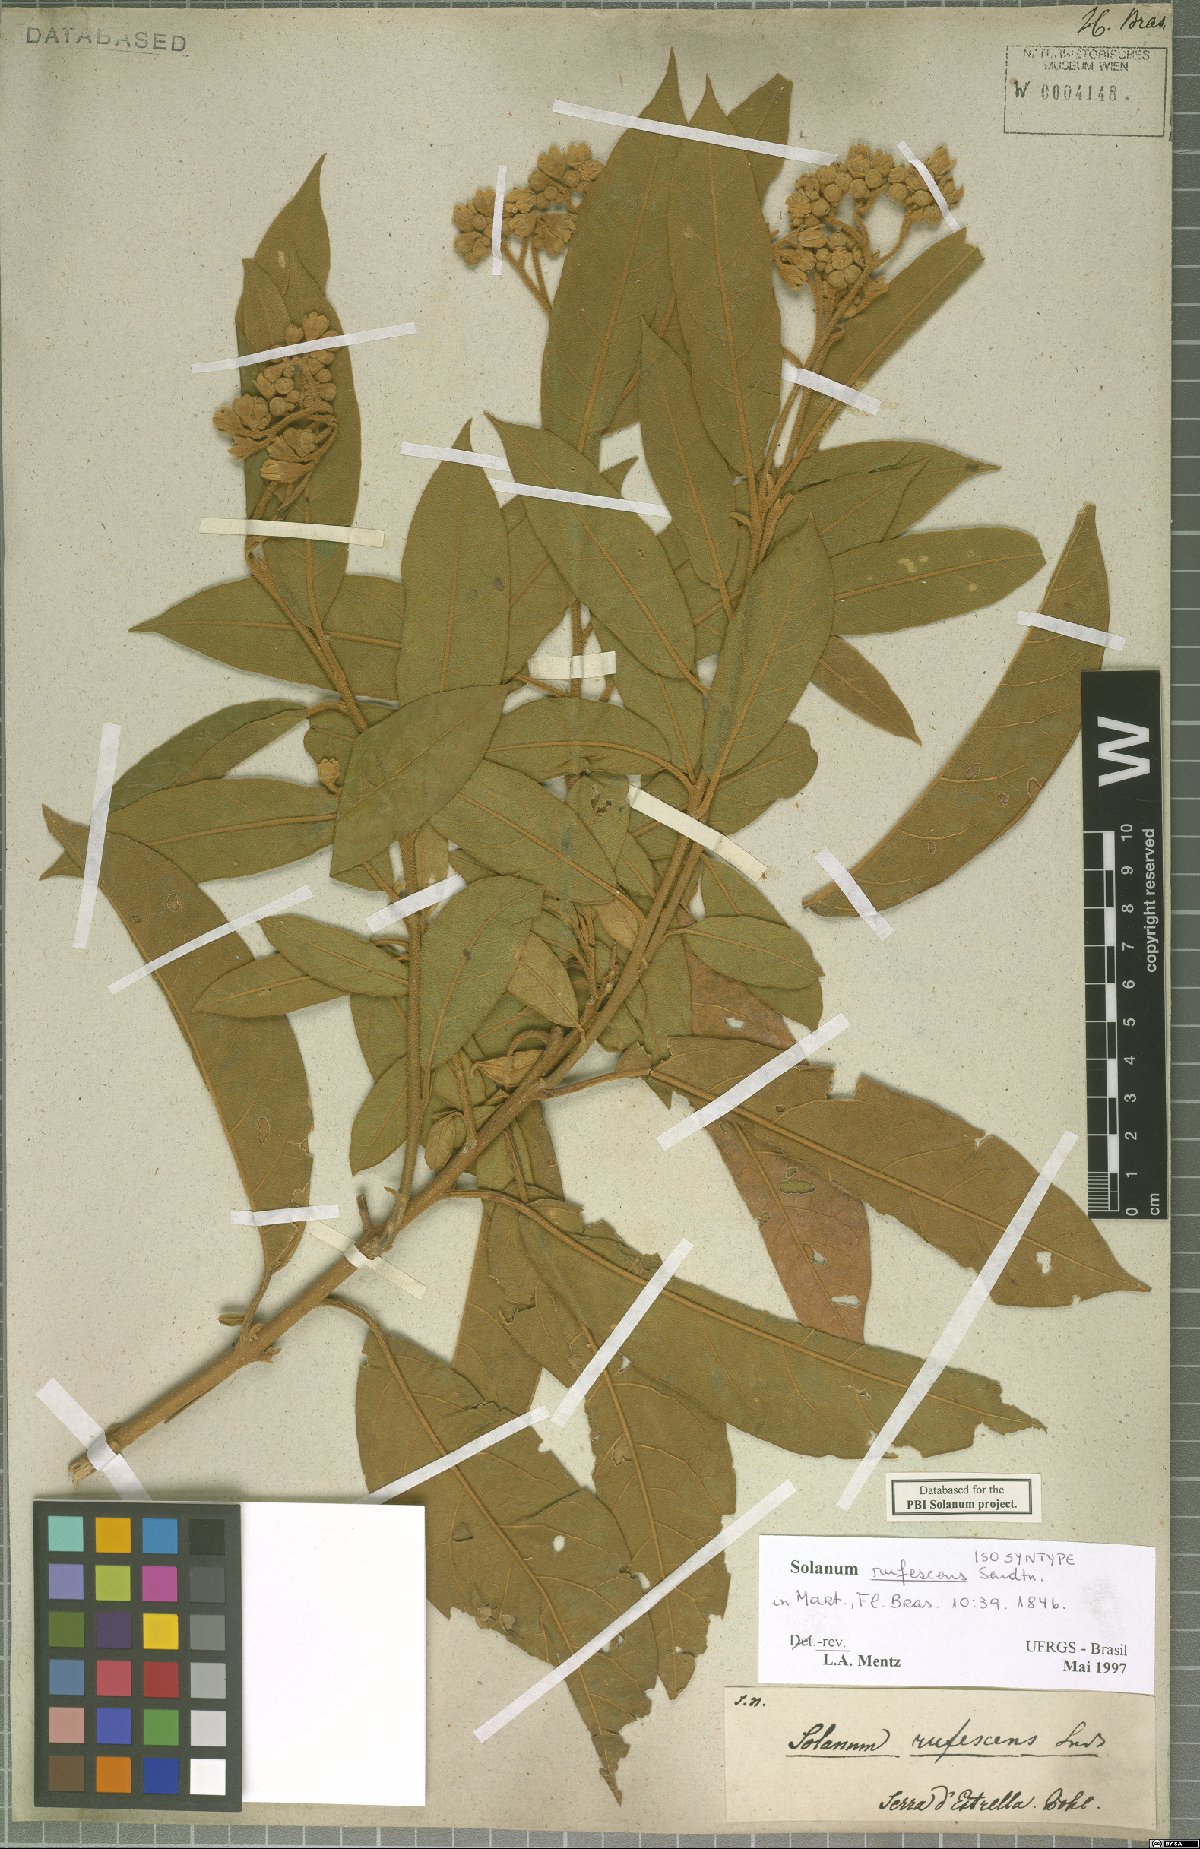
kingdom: Plantae
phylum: Tracheophyta
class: Magnoliopsida
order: Solanales
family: Solanaceae
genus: Solanum
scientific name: Solanum rufescens
